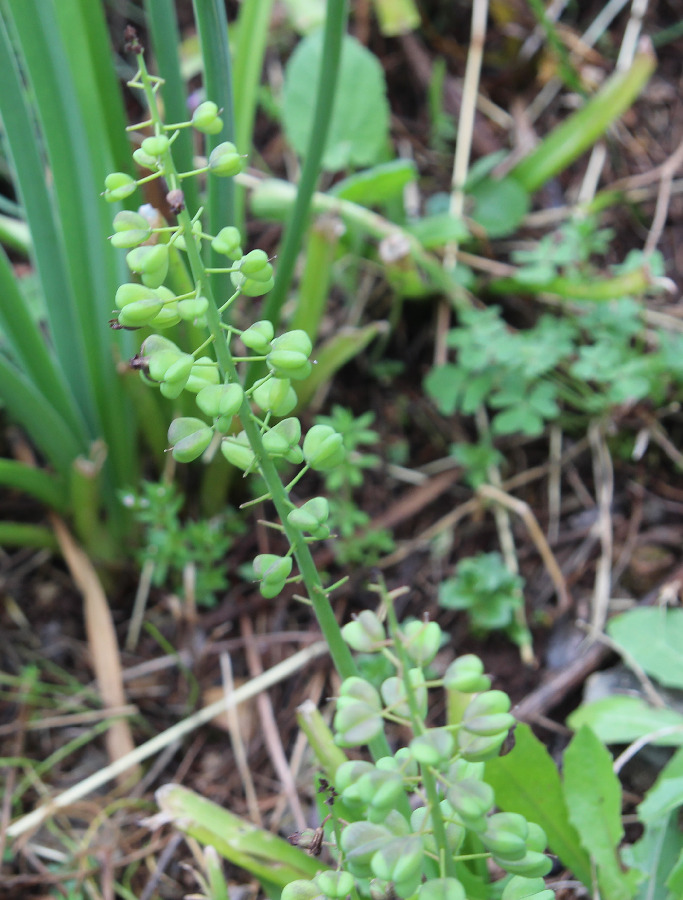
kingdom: Plantae
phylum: Tracheophyta
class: Liliopsida
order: Asparagales
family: Asparagaceae
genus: Muscari
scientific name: Muscari comosum
